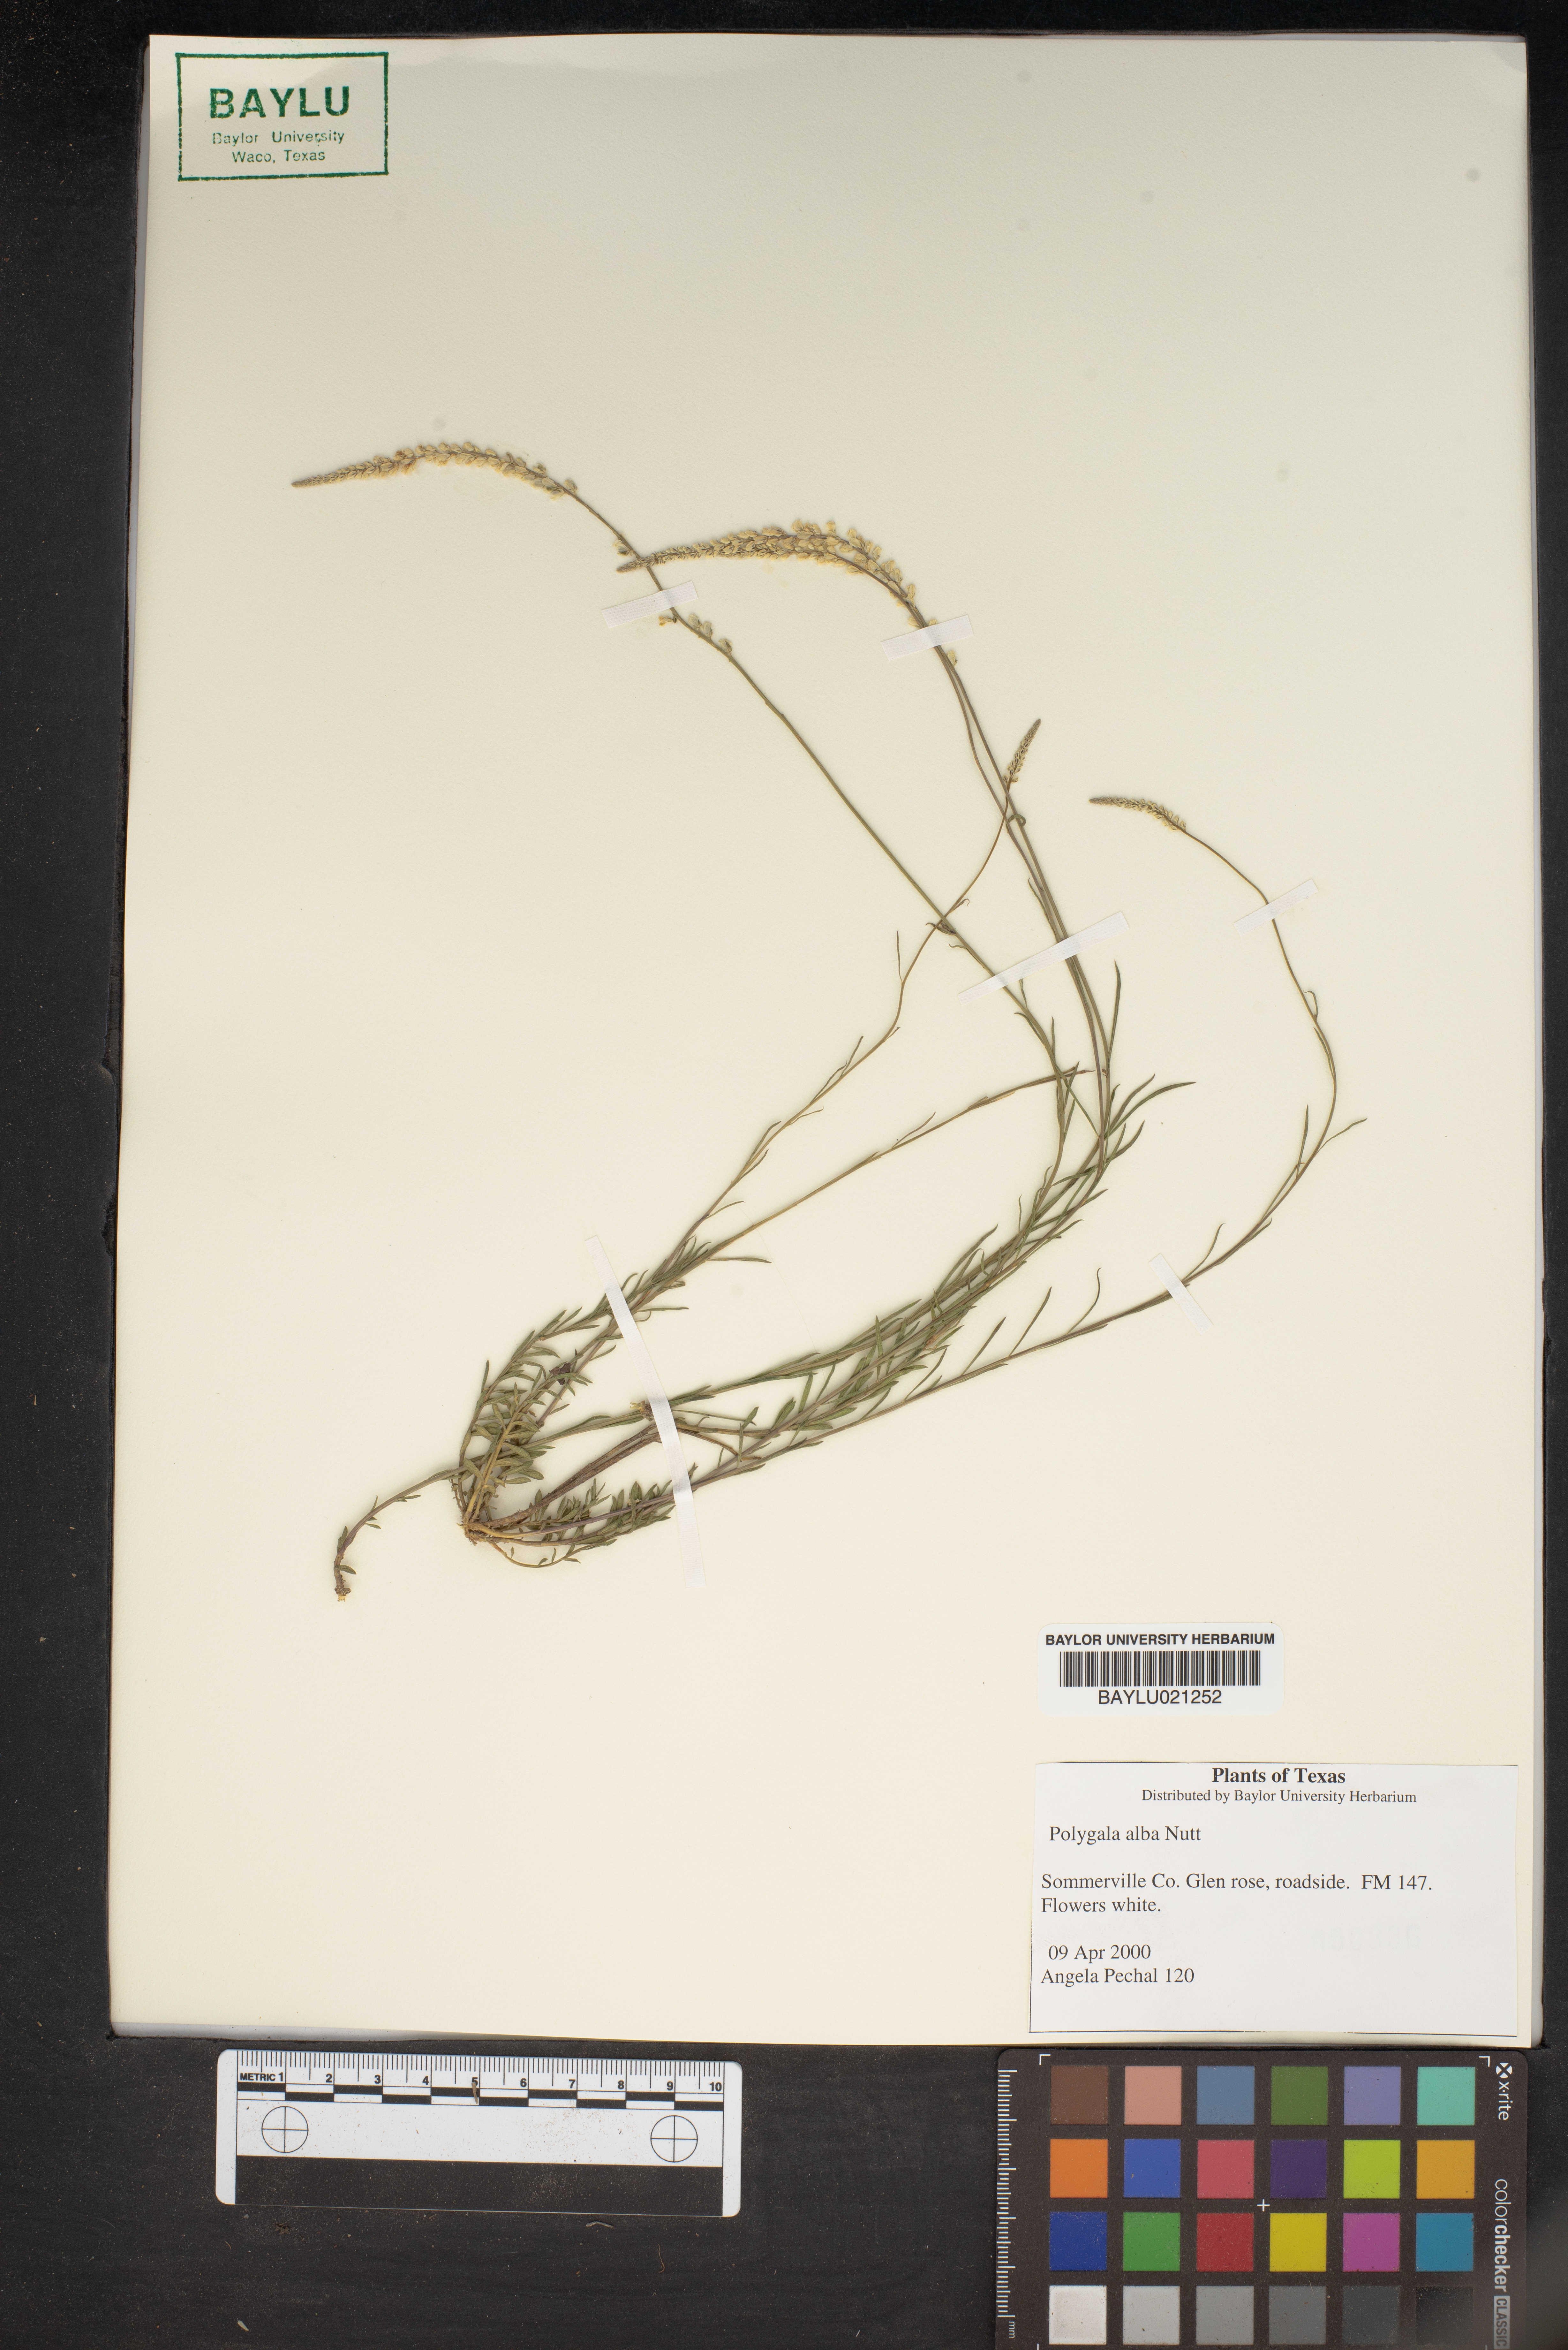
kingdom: Plantae
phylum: Tracheophyta
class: Magnoliopsida
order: Fabales
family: Polygalaceae
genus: Polygala
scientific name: Polygala alba
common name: White milkwort
